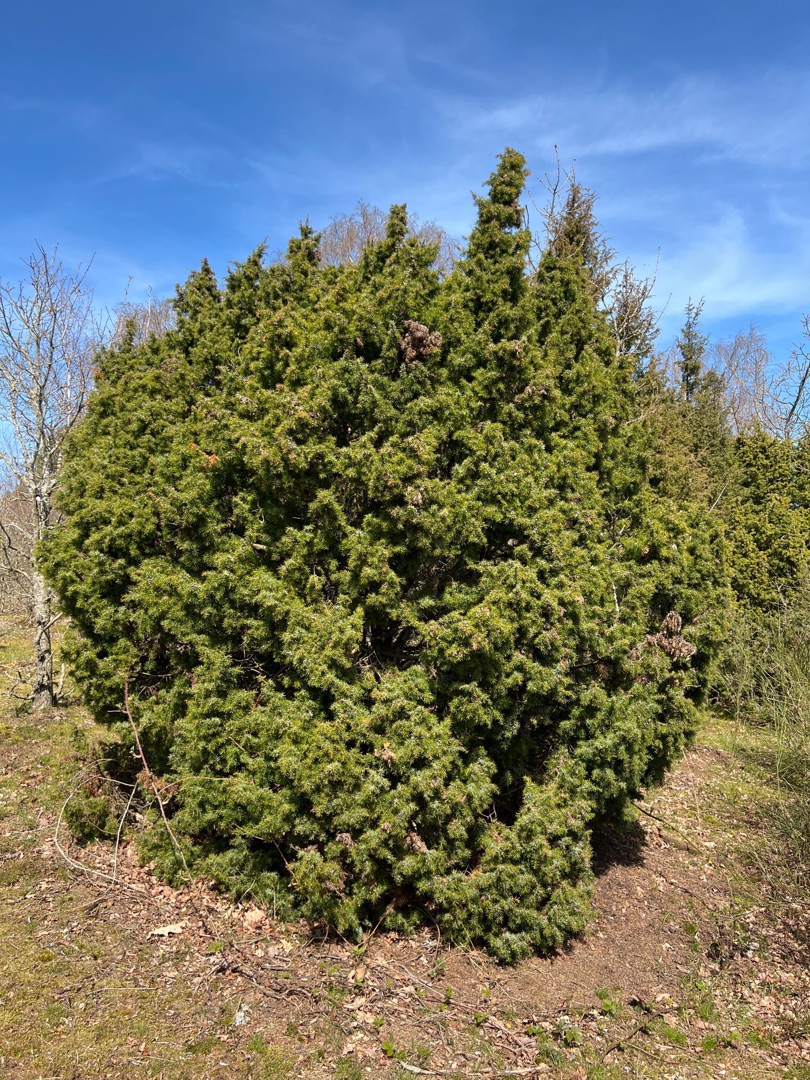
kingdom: Plantae
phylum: Tracheophyta
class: Pinopsida
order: Pinales
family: Cupressaceae
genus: Juniperus
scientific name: Juniperus communis
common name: Almindelig ene
